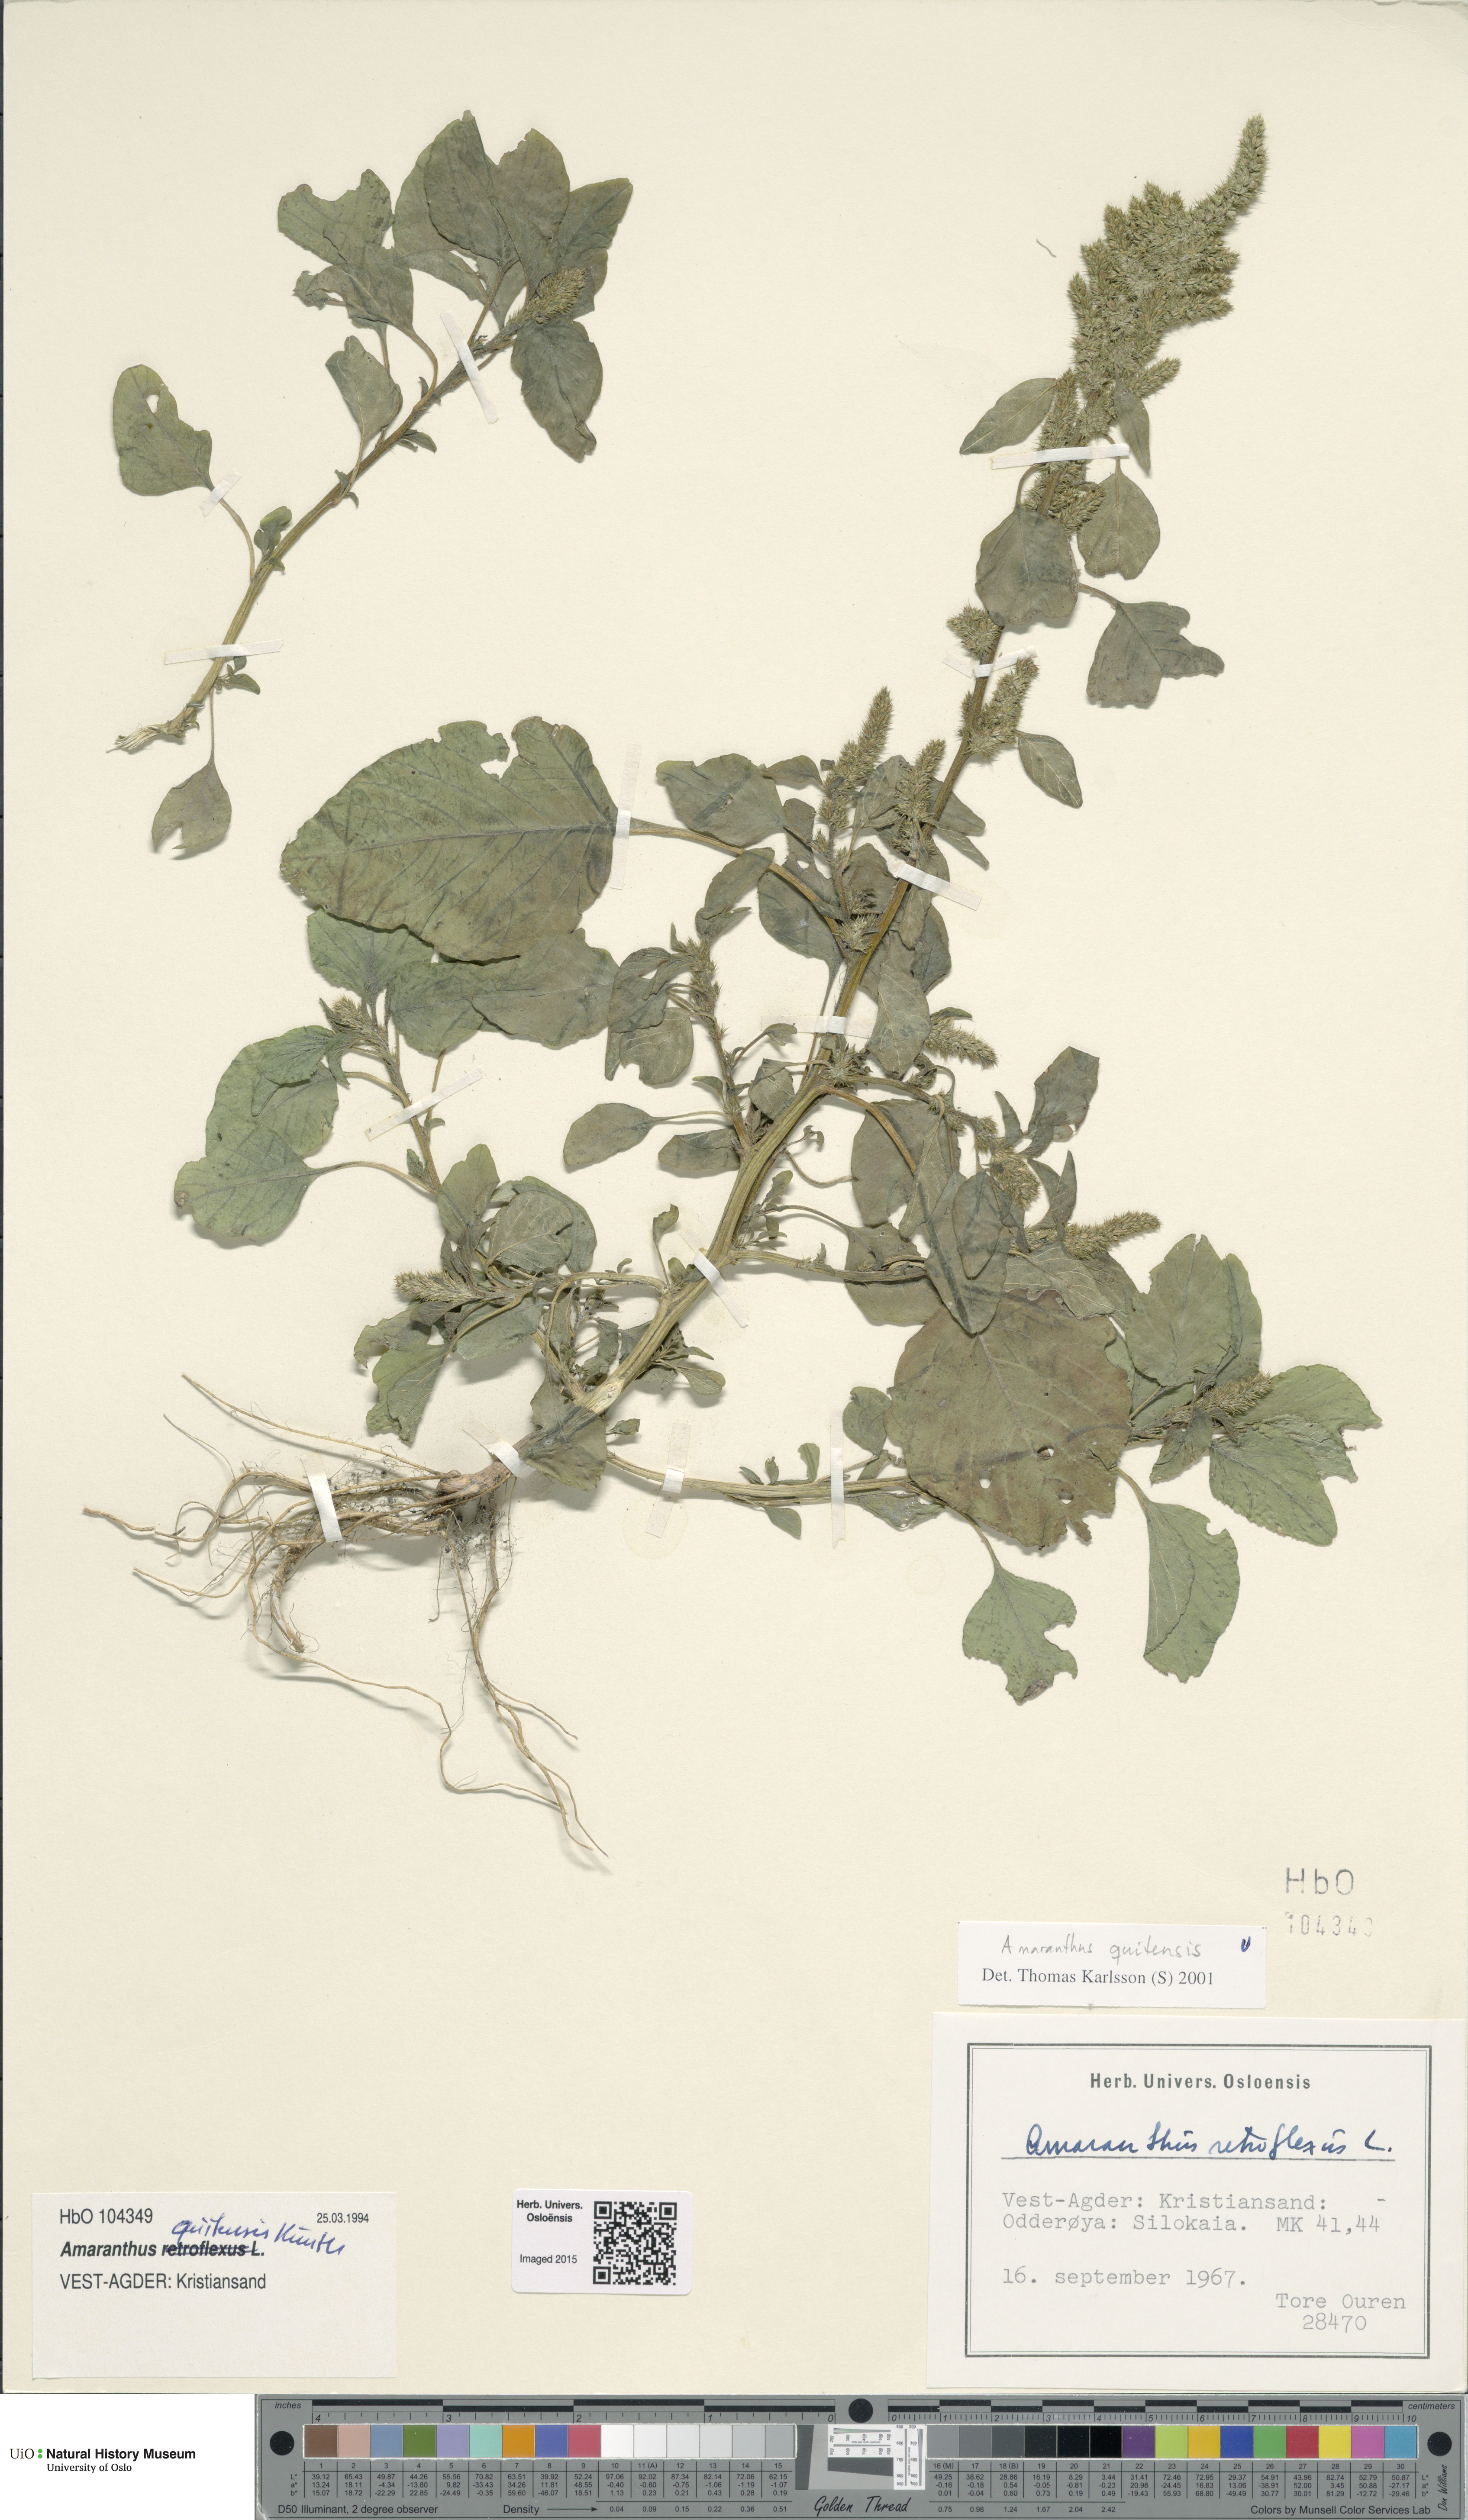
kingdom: Plantae
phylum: Tracheophyta
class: Magnoliopsida
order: Caryophyllales
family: Amaranthaceae
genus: Amaranthus
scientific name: Amaranthus quitensis
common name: Mucronate amaranth
